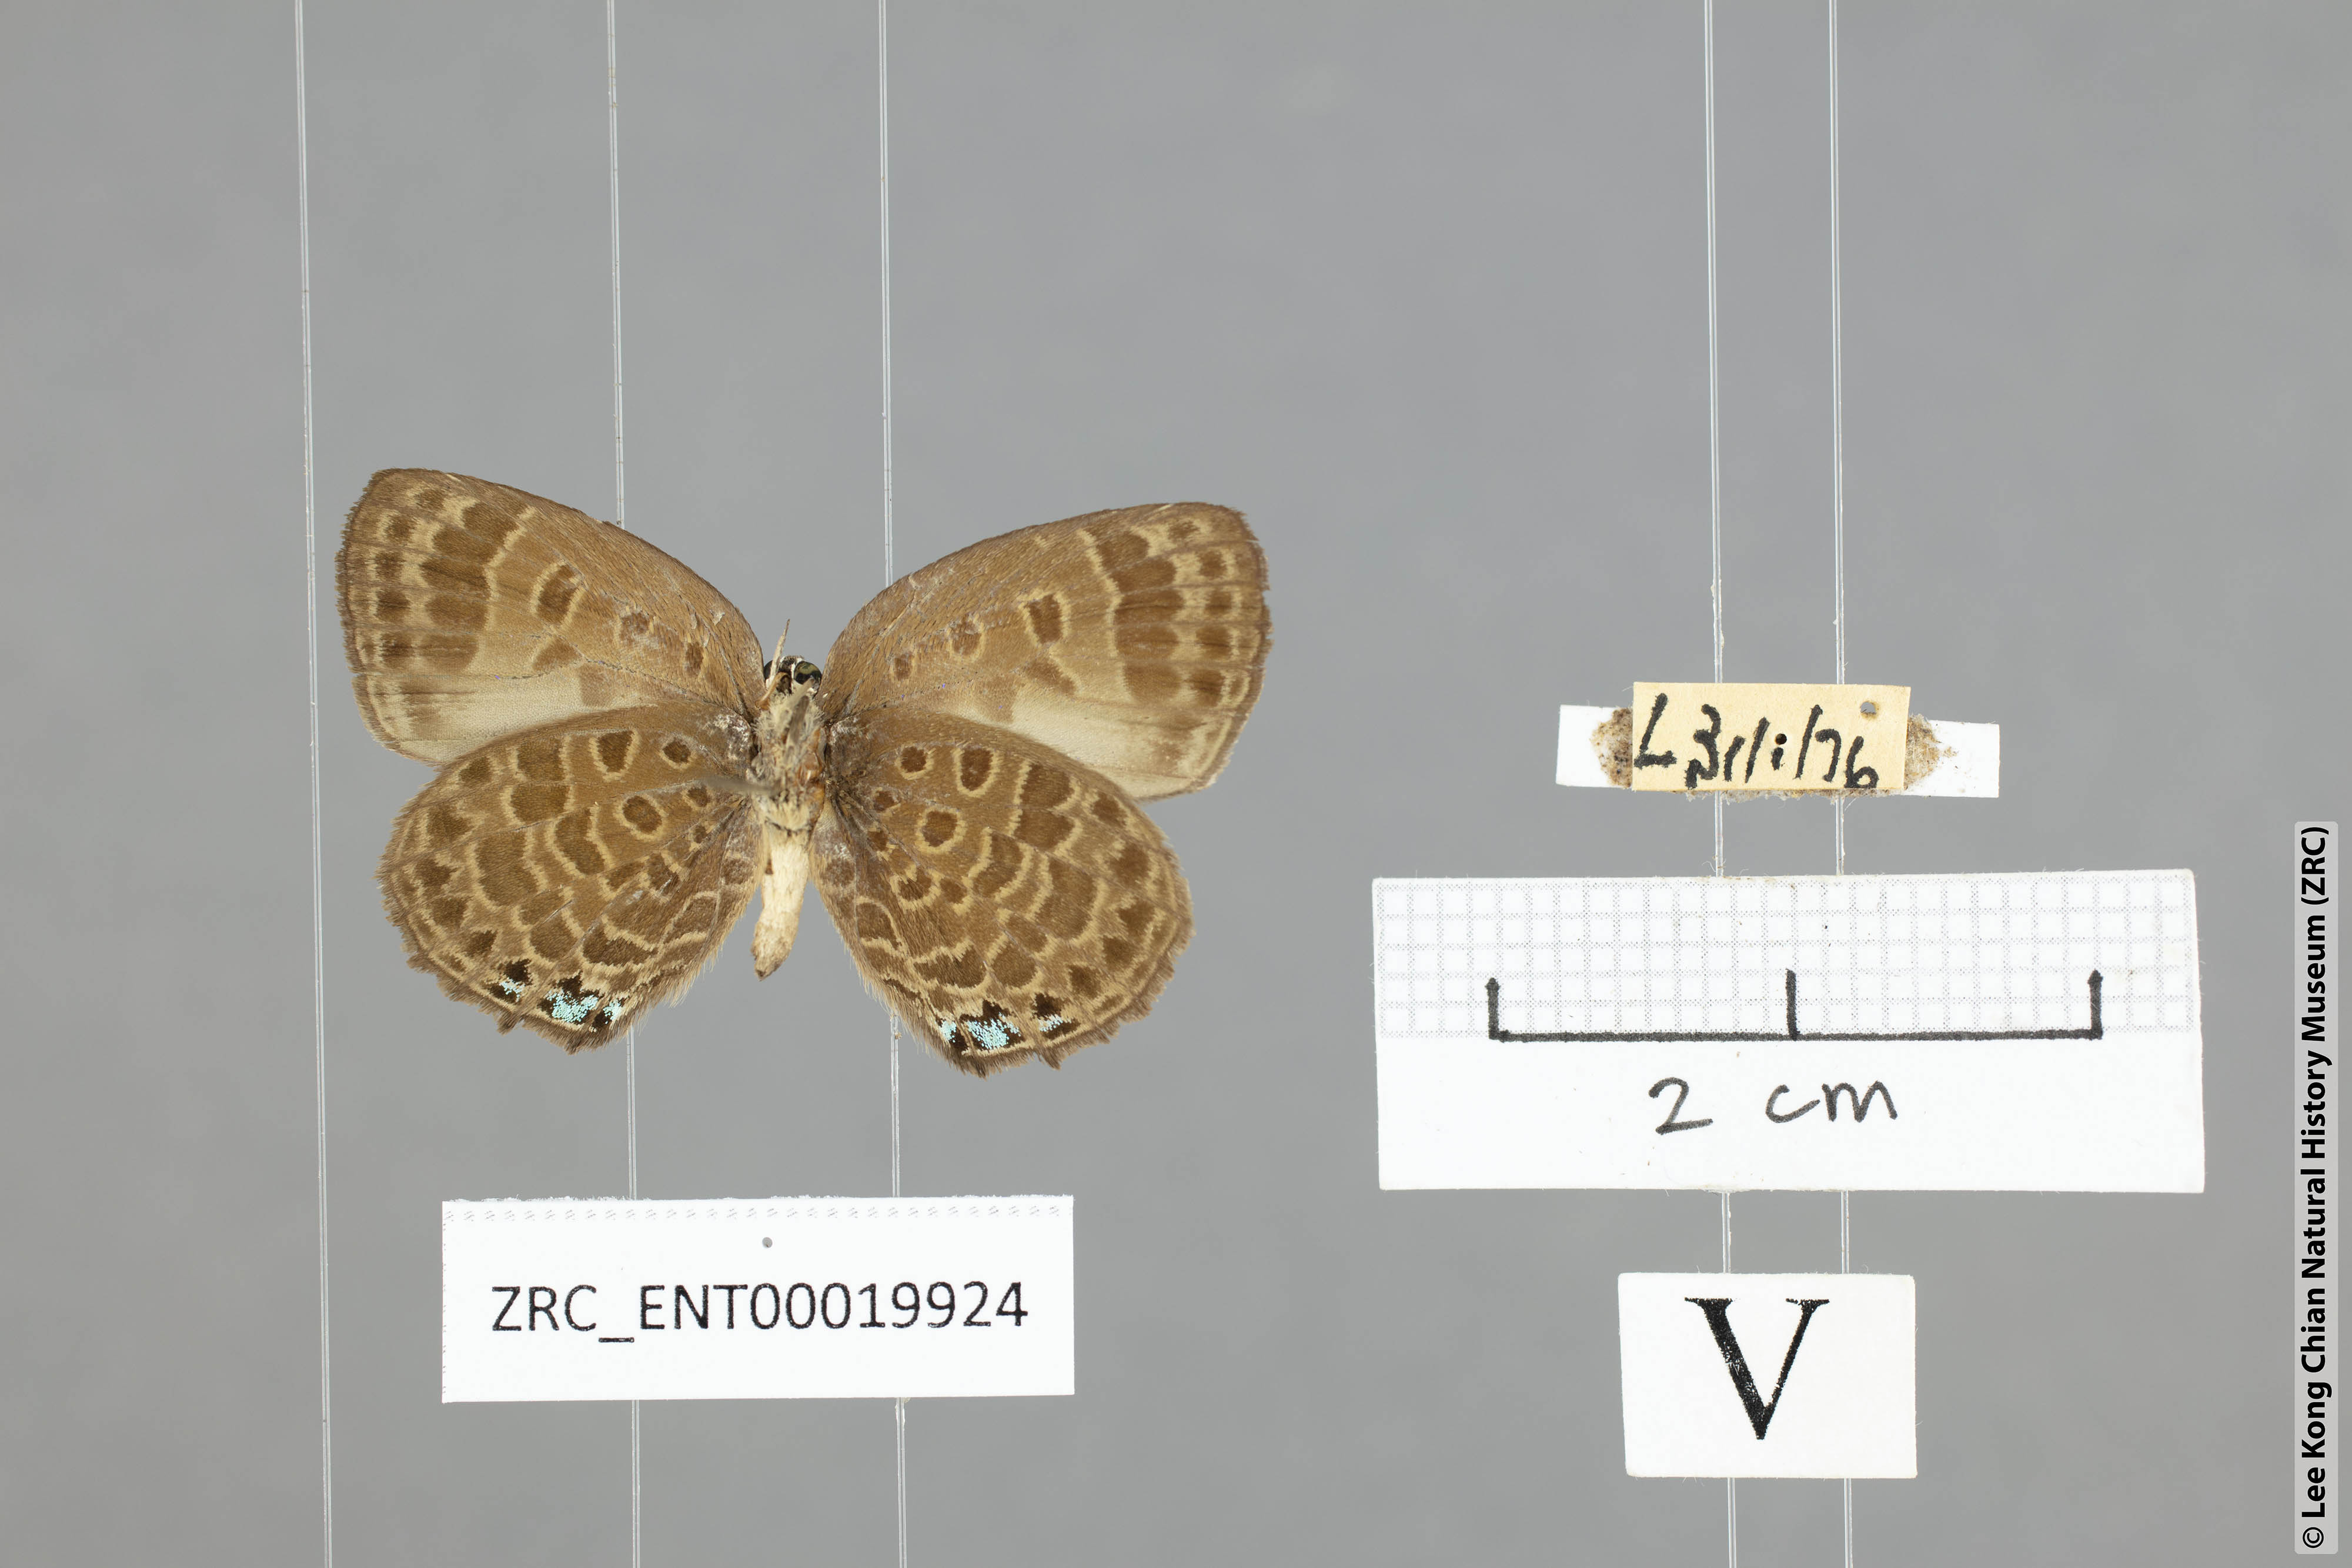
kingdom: Animalia
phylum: Arthropoda
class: Insecta
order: Lepidoptera
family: Lycaenidae
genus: Arhopala
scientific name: Arhopala wildeyana
